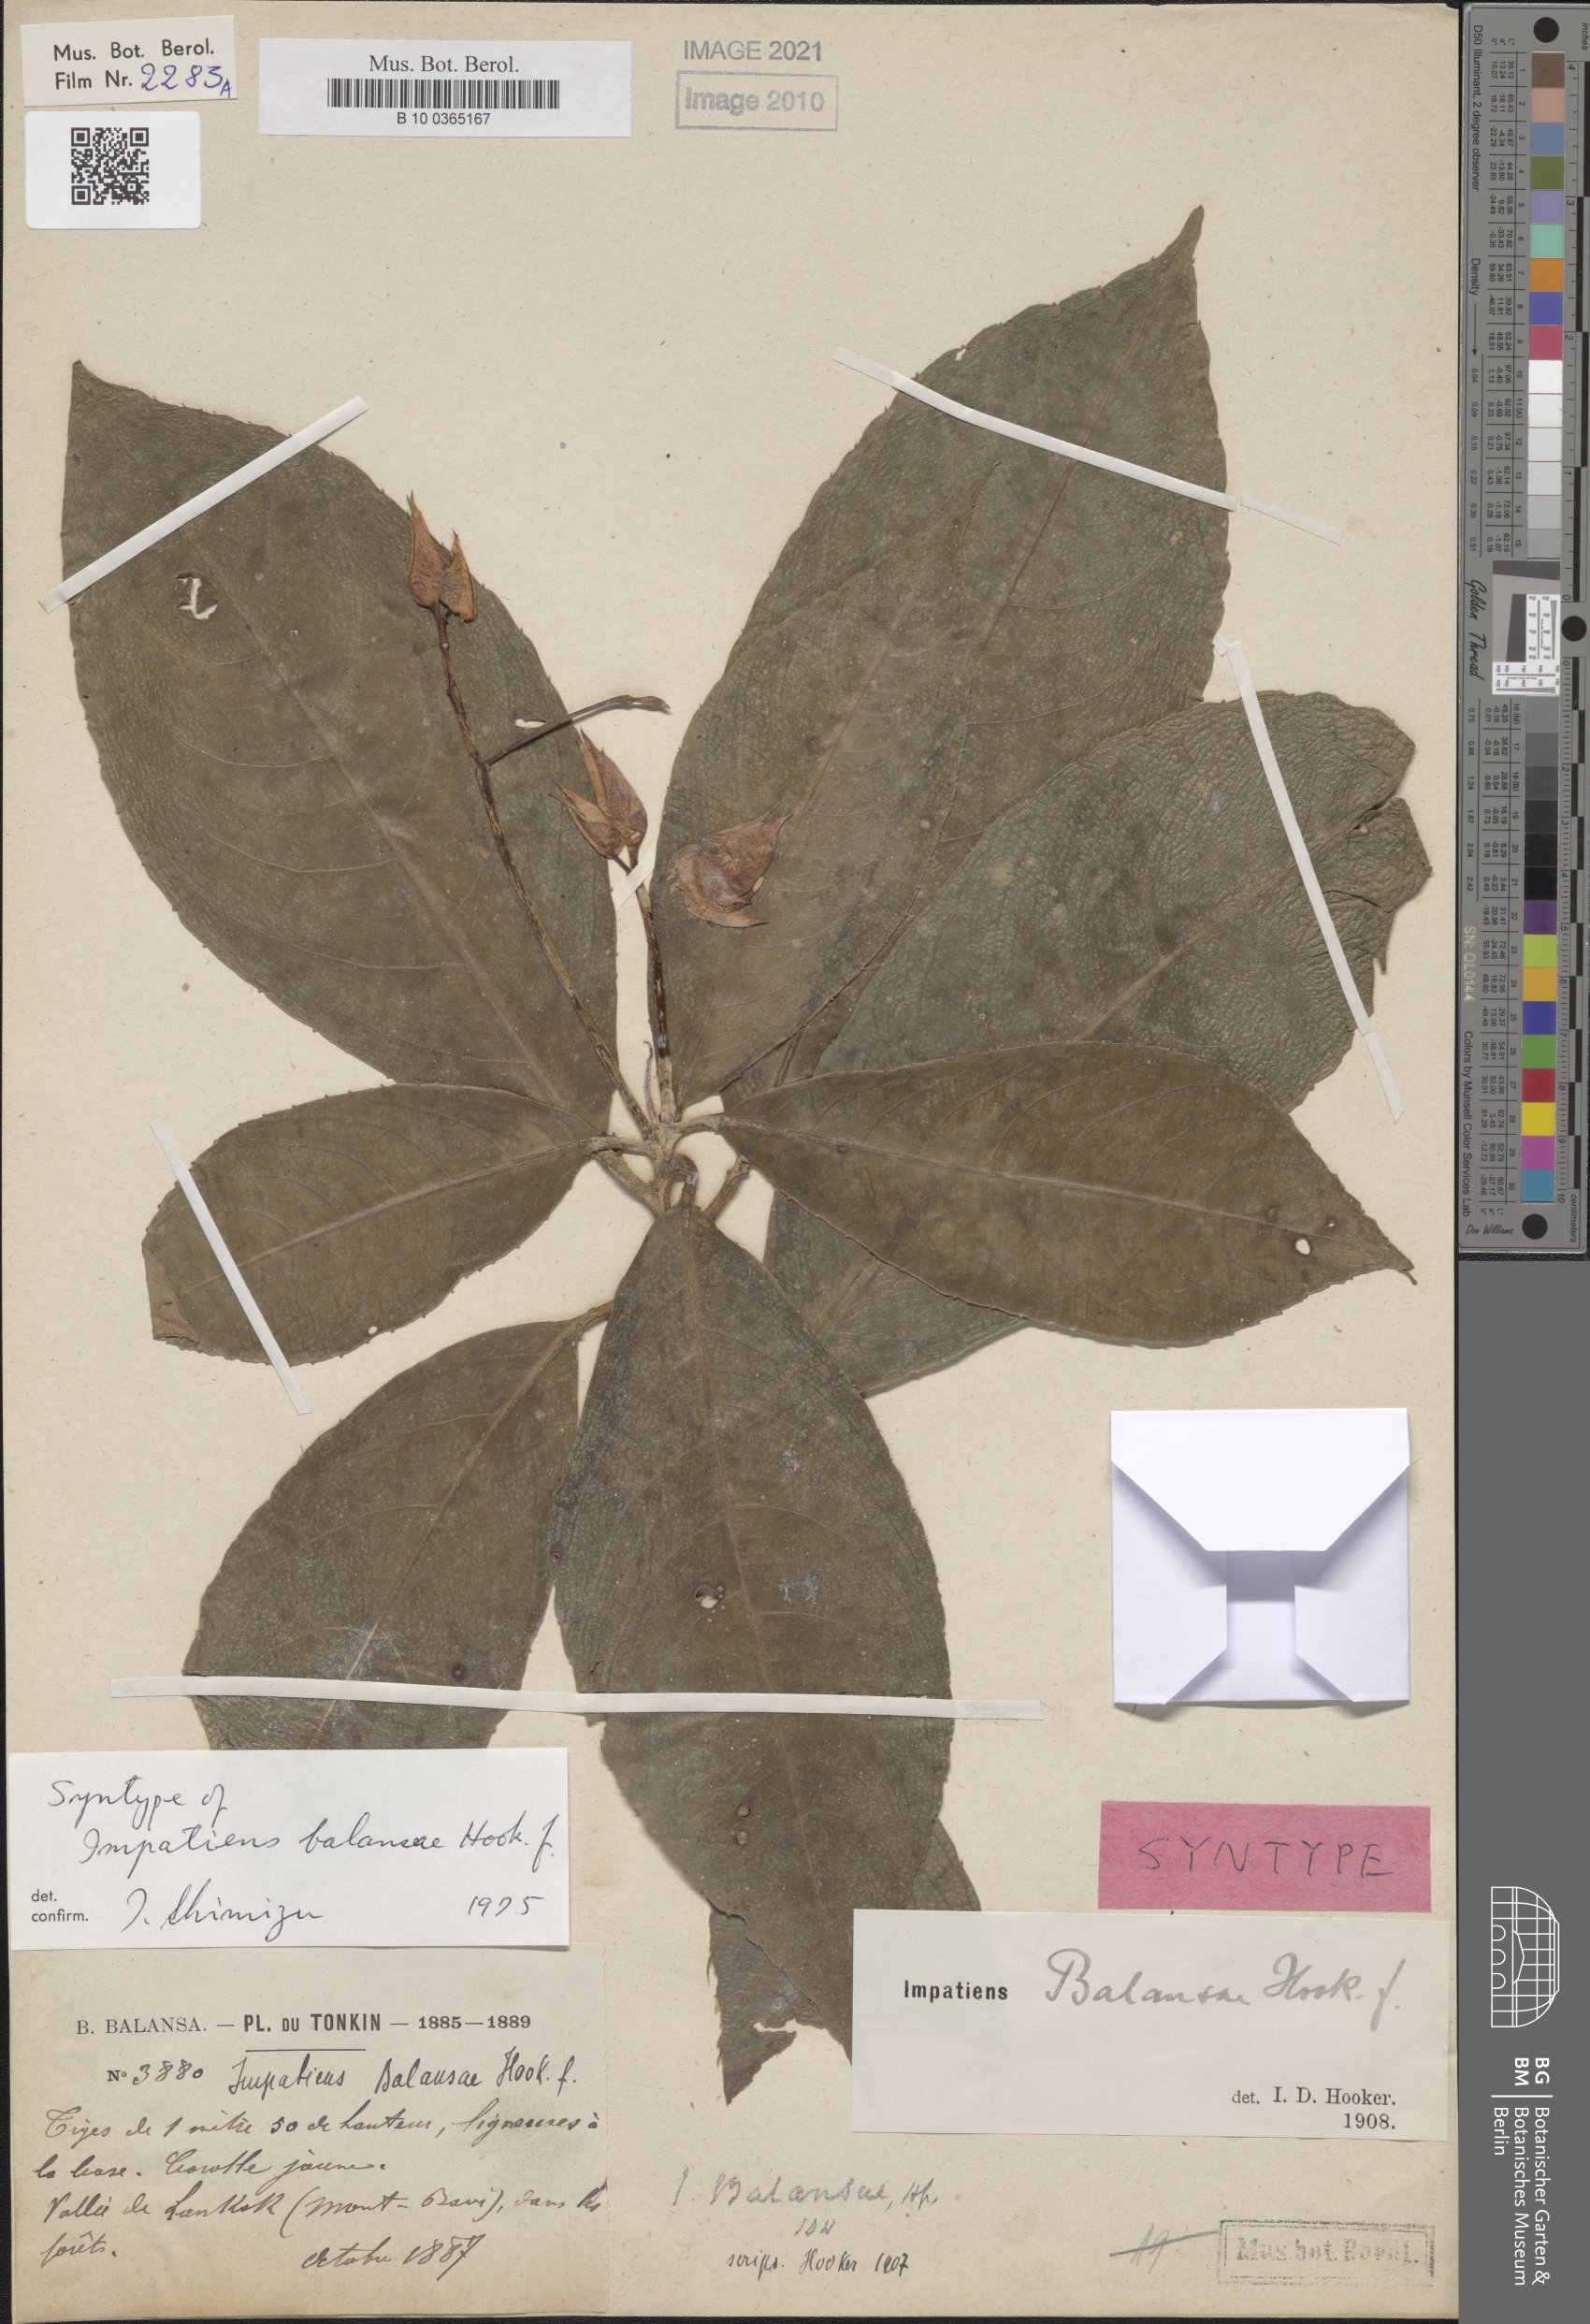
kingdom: Plantae
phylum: Tracheophyta
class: Magnoliopsida
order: Ericales
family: Balsaminaceae
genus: Impatiens
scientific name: Impatiens balansae
